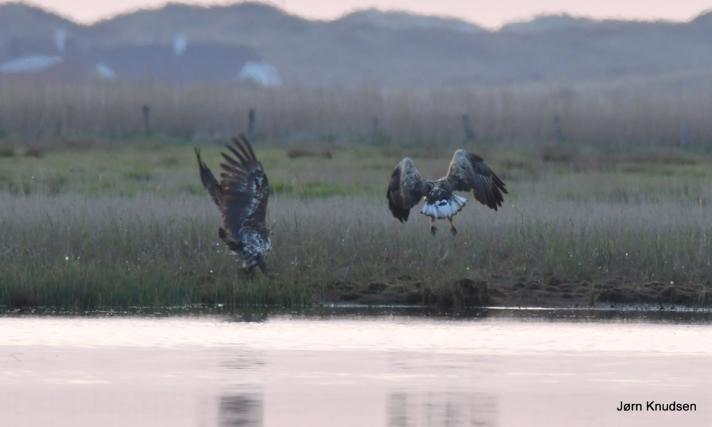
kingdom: Animalia
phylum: Chordata
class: Aves
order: Accipitriformes
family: Accipitridae
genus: Haliaeetus
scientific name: Haliaeetus albicilla
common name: Havørn
